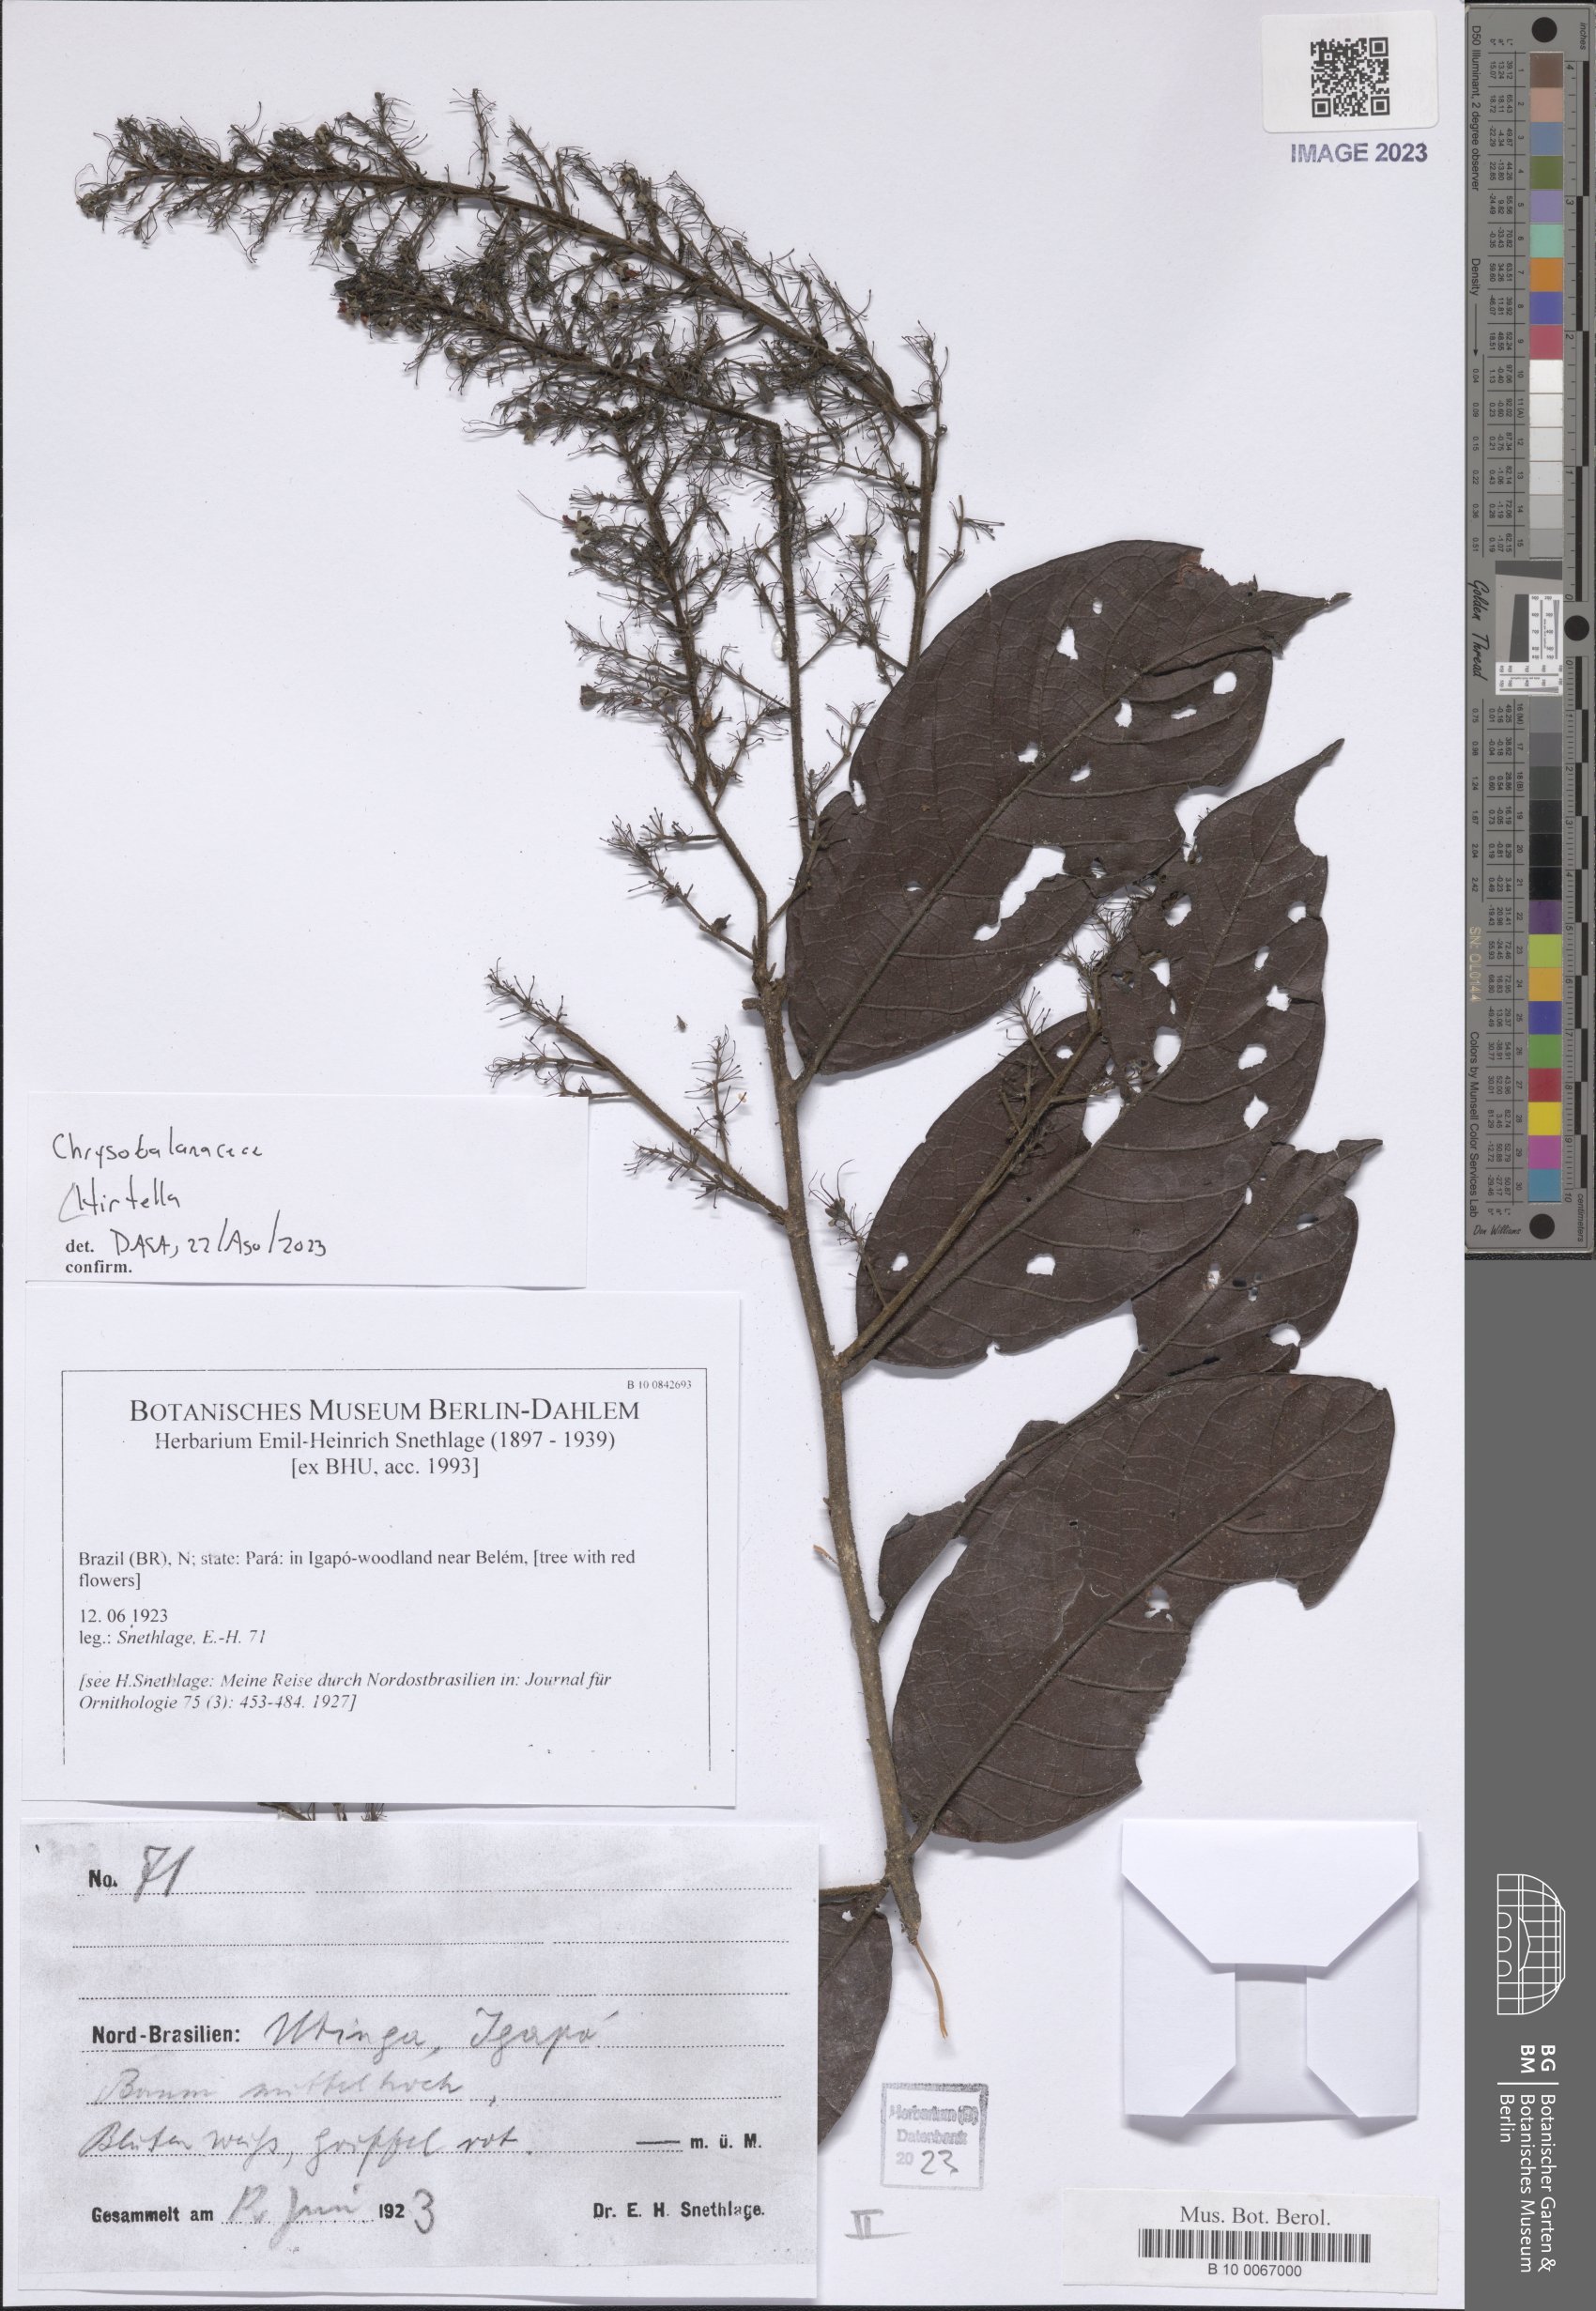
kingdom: Plantae
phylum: Tracheophyta
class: Magnoliopsida
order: Malpighiales
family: Chrysobalanaceae
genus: Hirtella
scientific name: Hirtella
